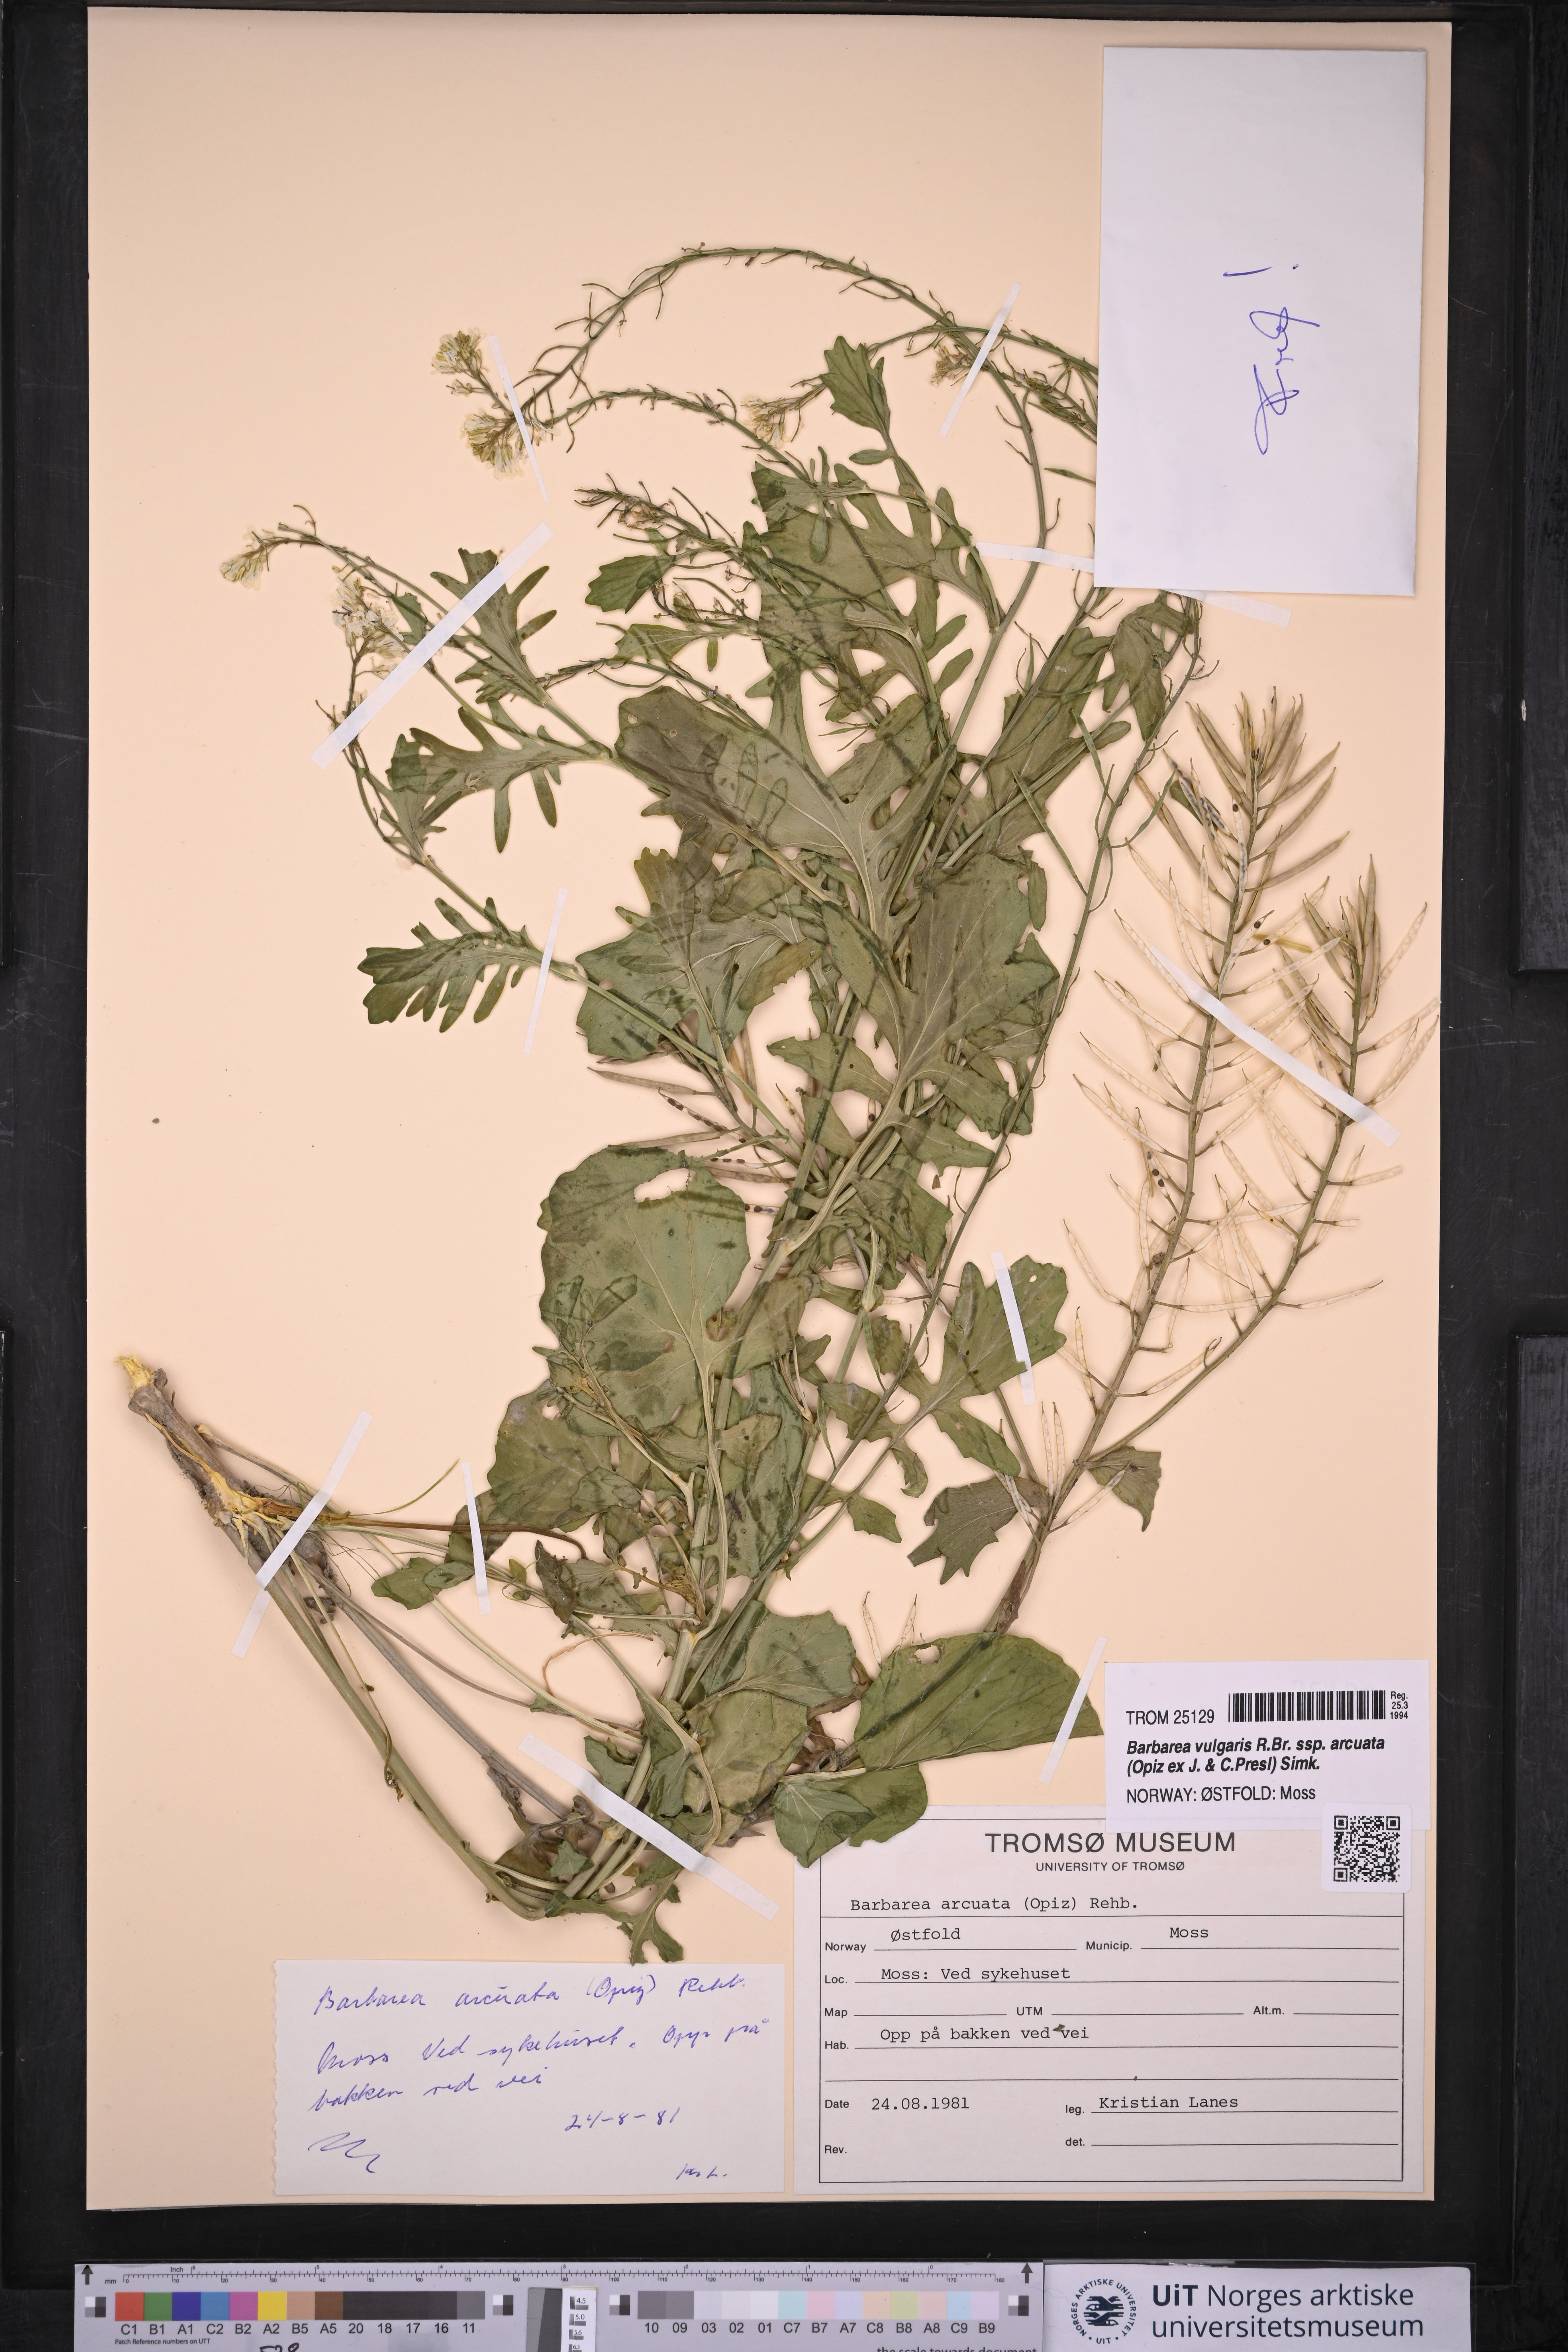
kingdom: Plantae
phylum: Tracheophyta
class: Magnoliopsida
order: Brassicales
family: Brassicaceae
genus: Barbarea
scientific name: Barbarea vulgaris
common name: Cressy-greens
